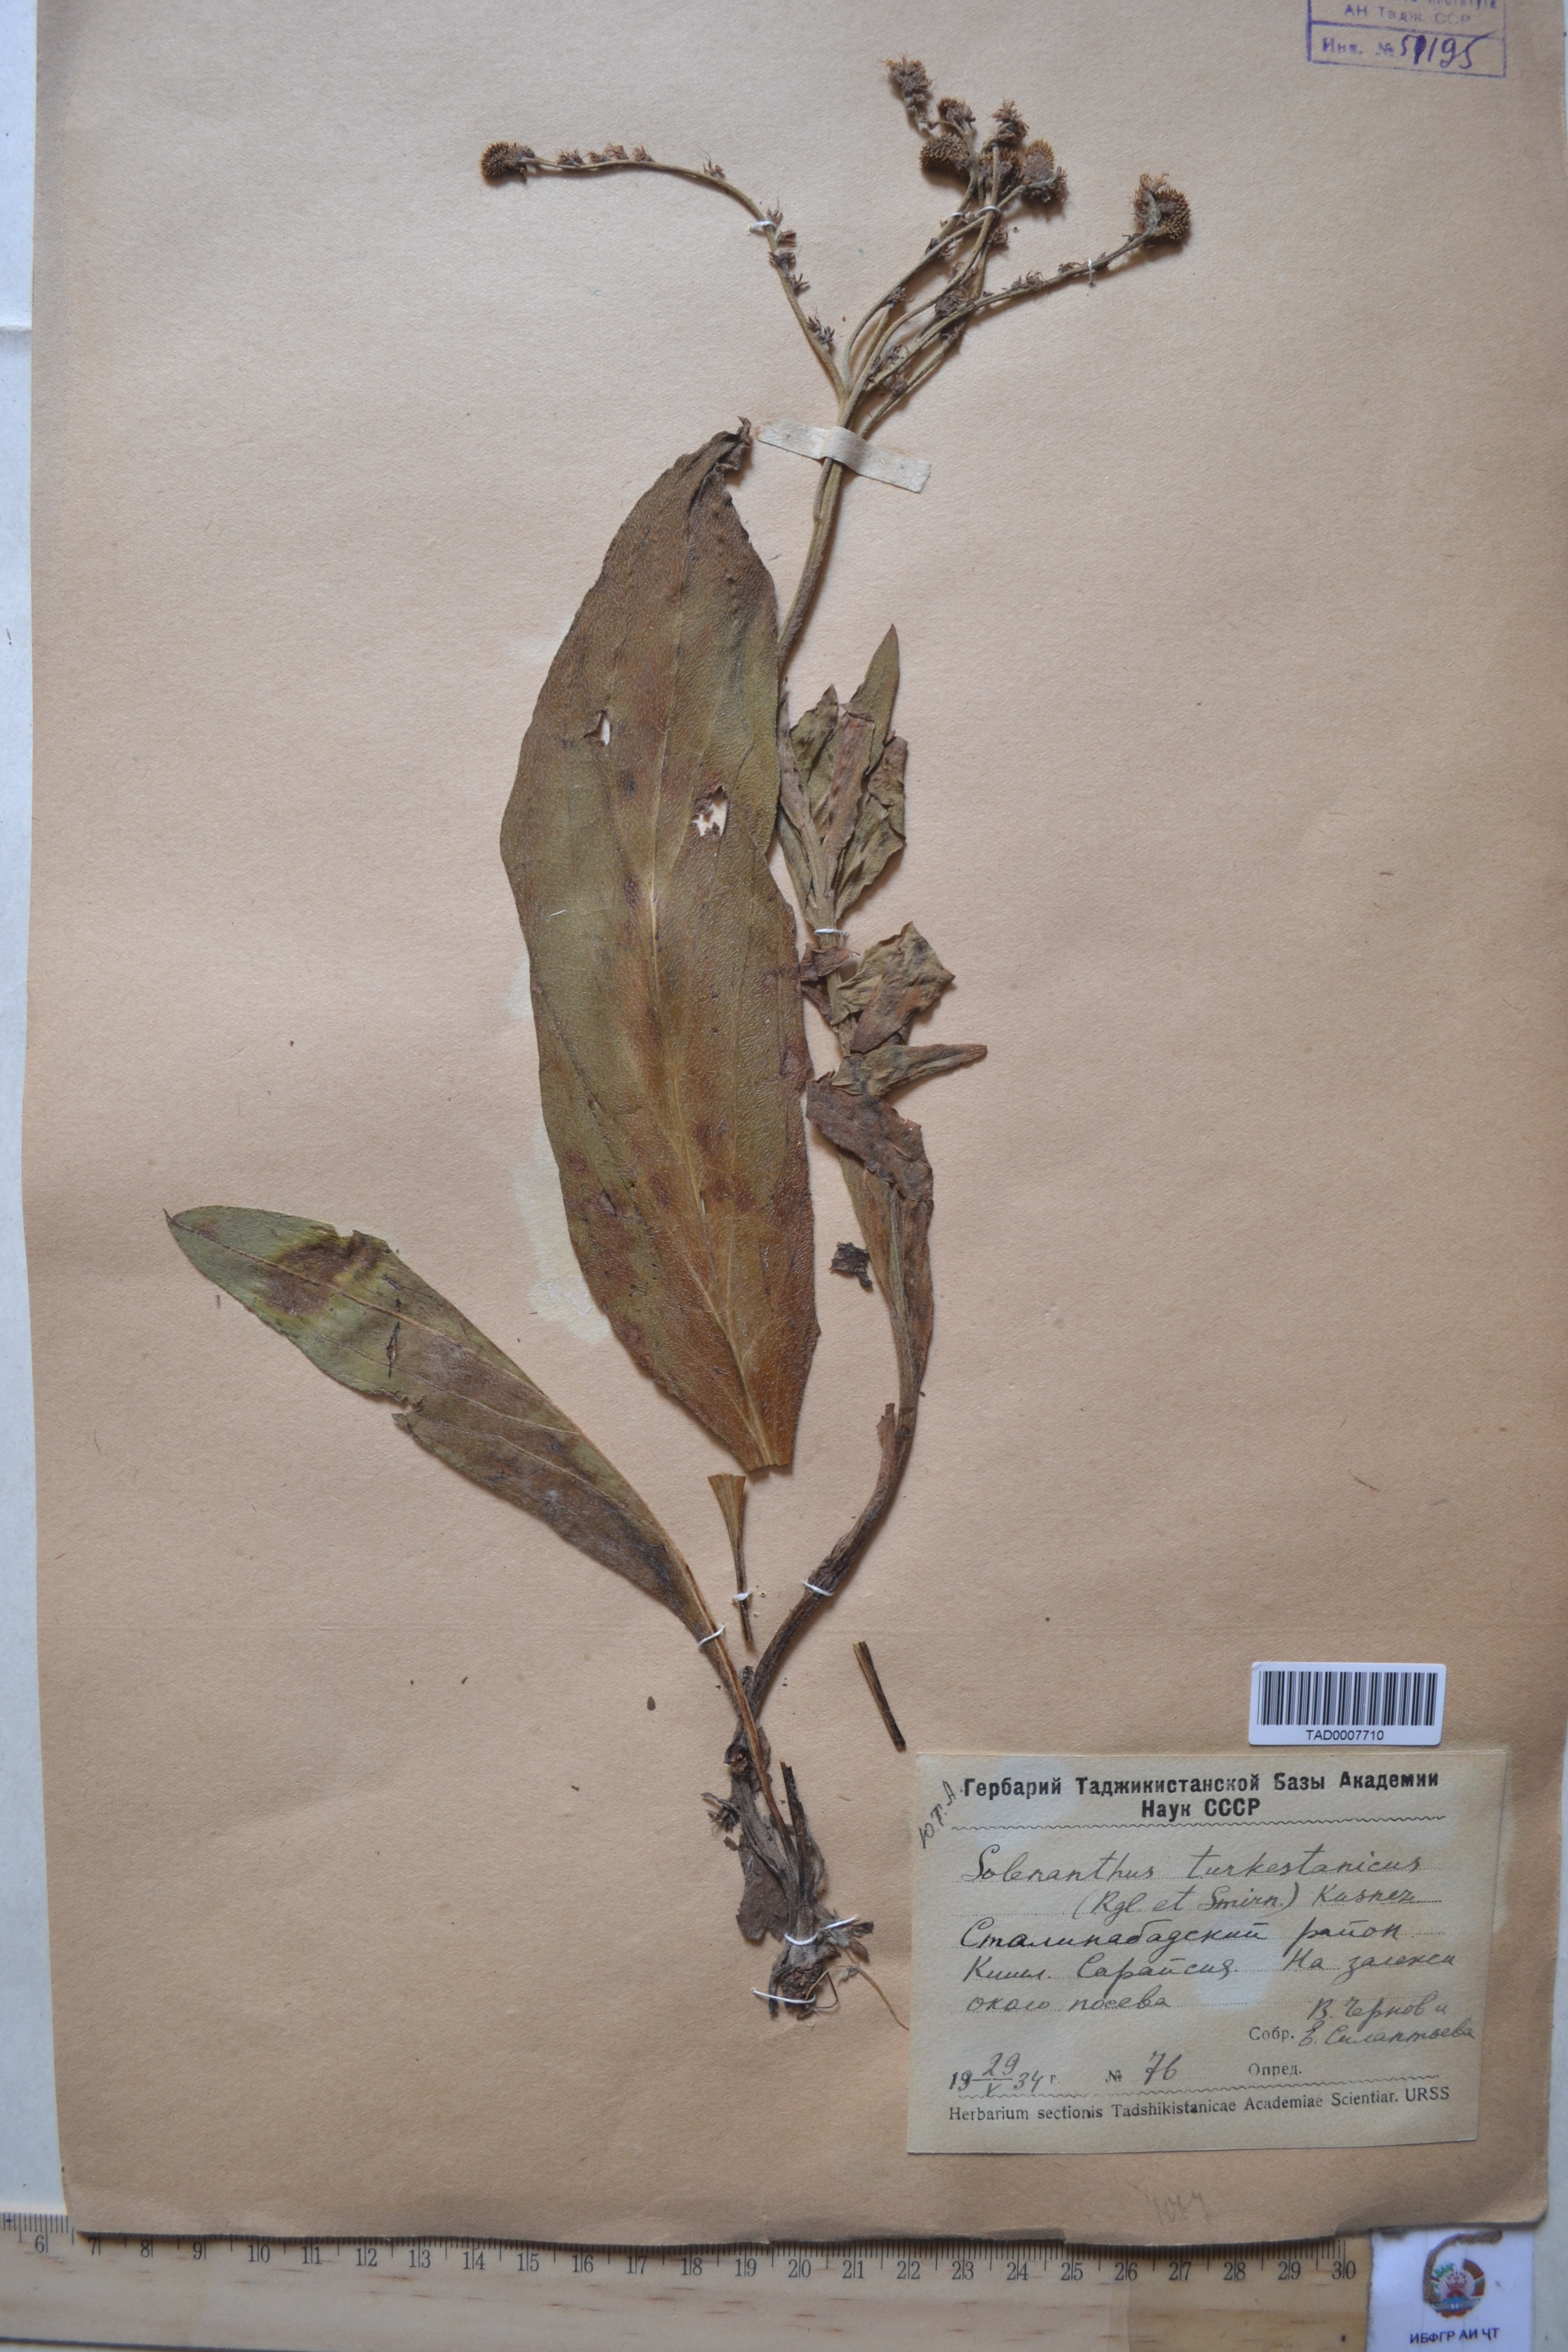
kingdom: Plantae
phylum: Tracheophyta
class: Magnoliopsida
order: Boraginales
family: Boraginaceae
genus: Solenanthus
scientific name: Solenanthus turkestanicus
